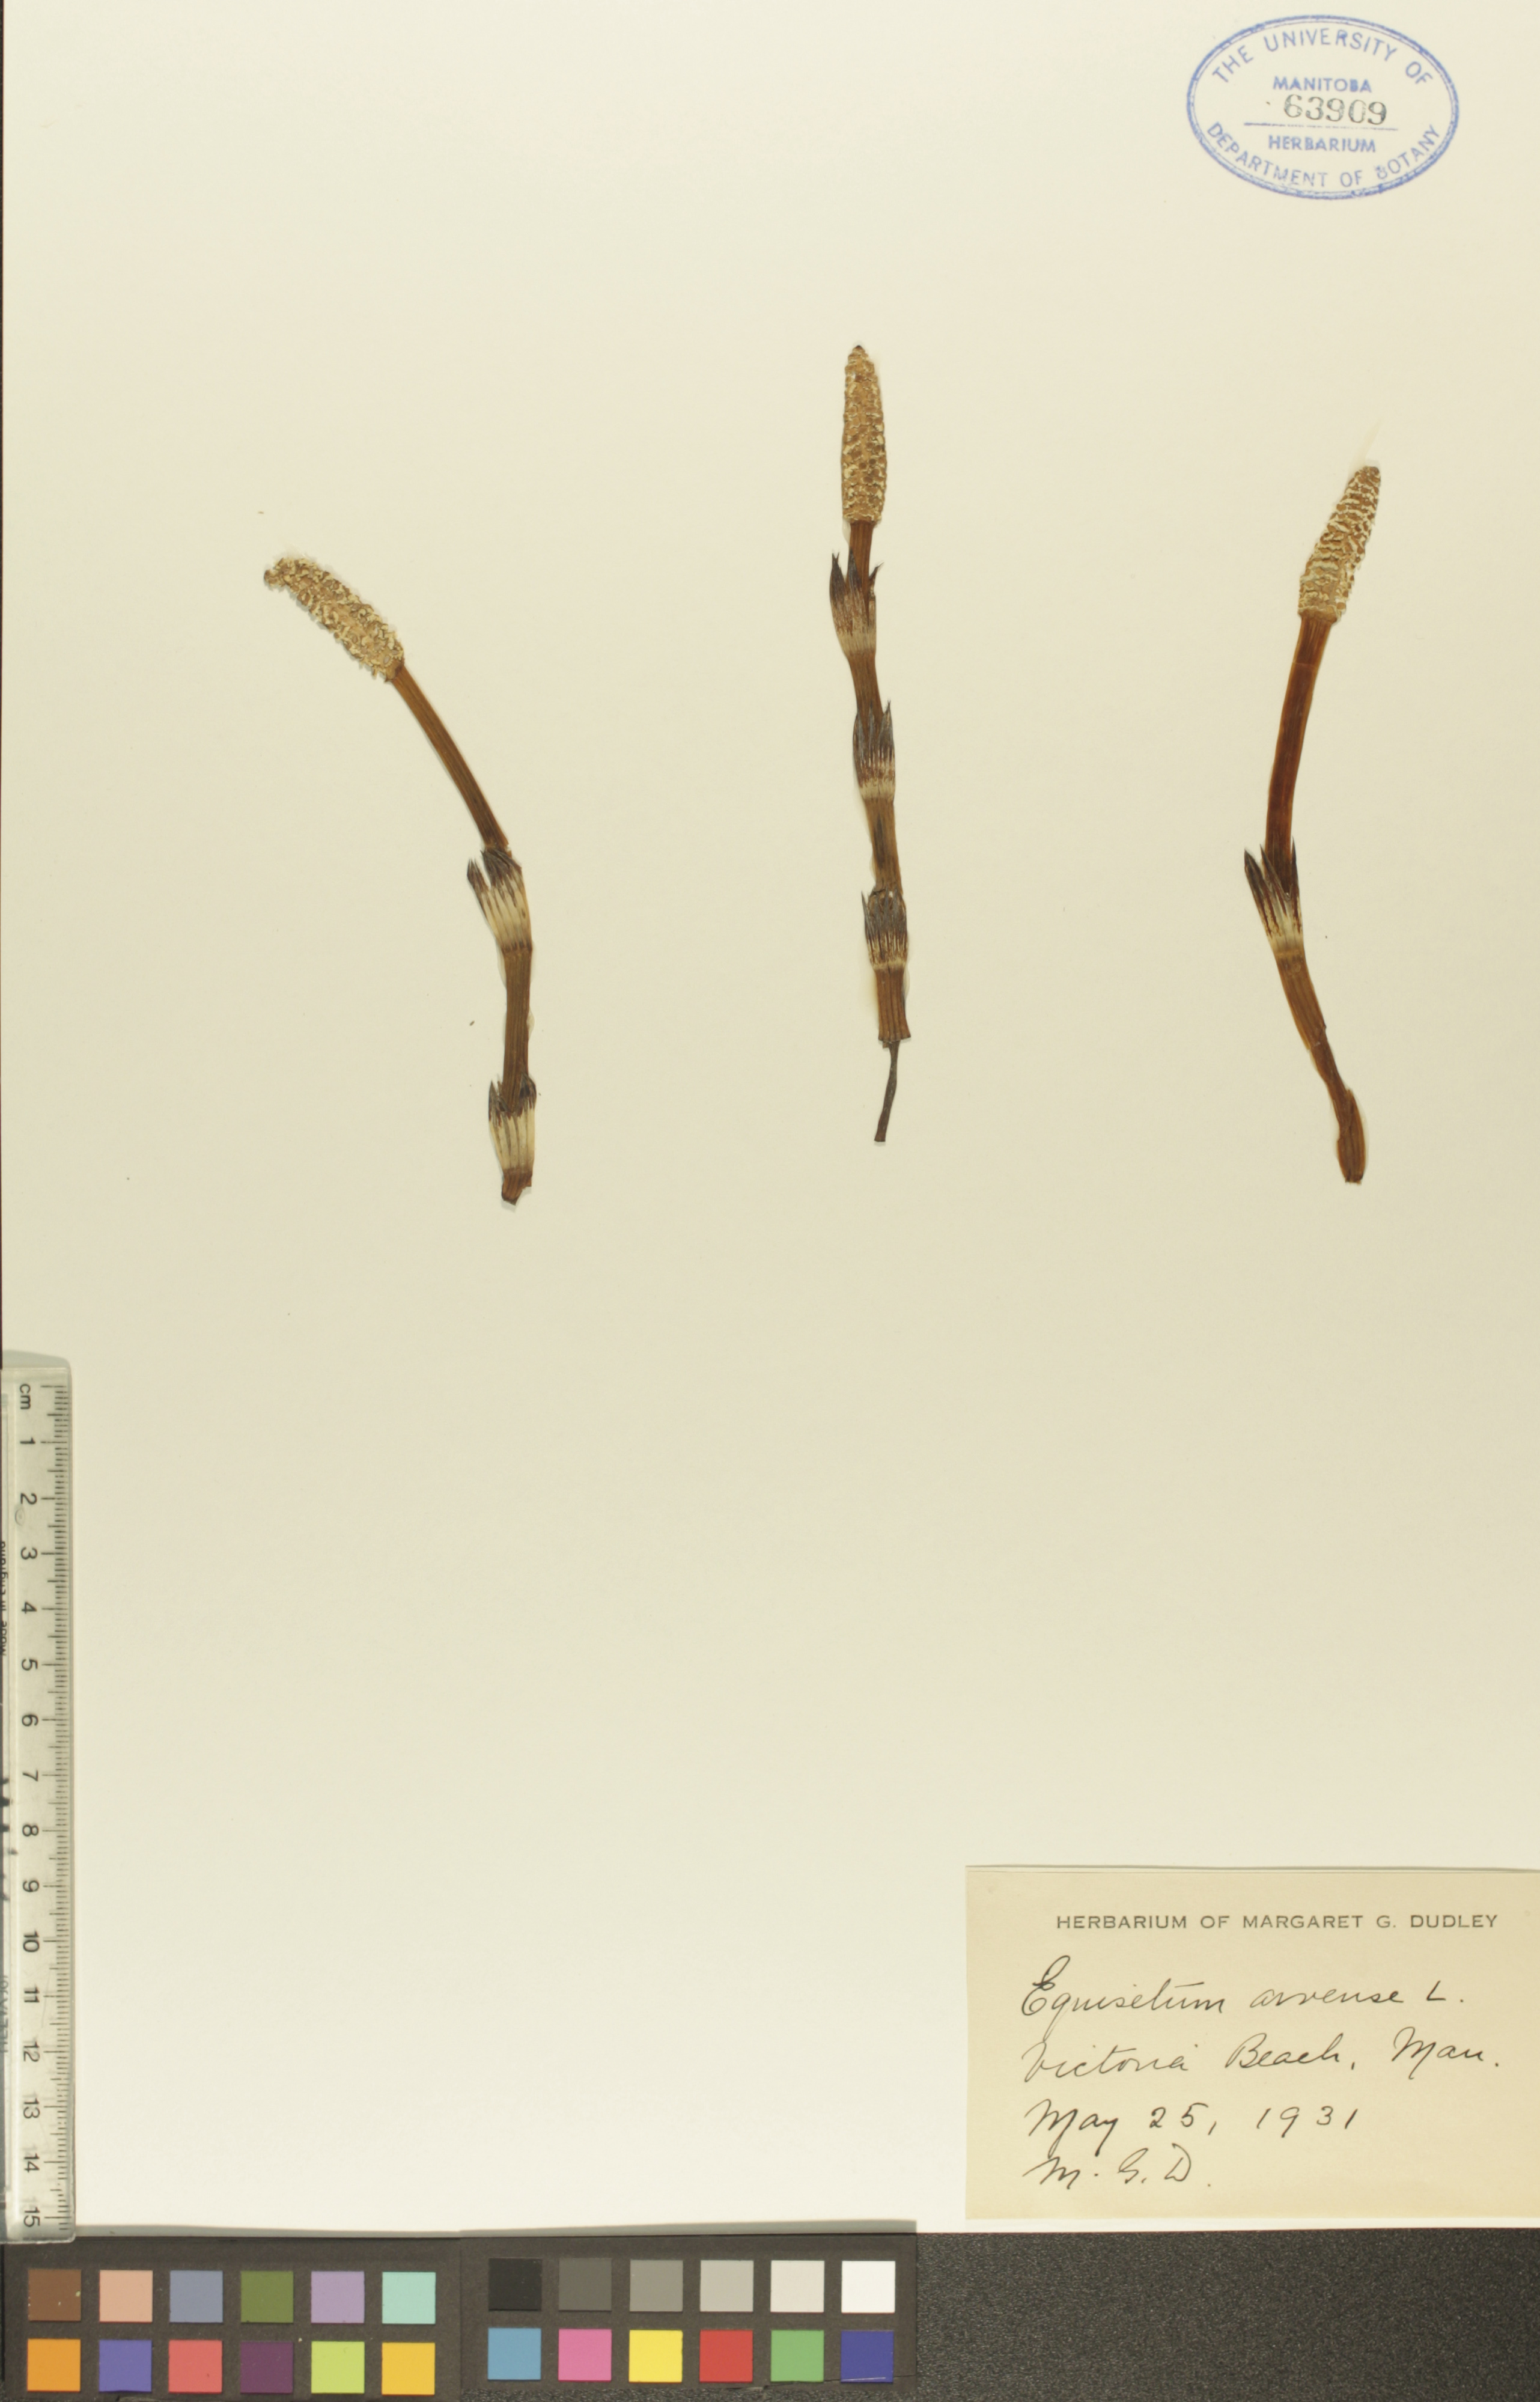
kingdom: Plantae
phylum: Tracheophyta
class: Polypodiopsida
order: Equisetales
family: Equisetaceae
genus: Equisetum
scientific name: Equisetum arvense
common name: Field horsetail
